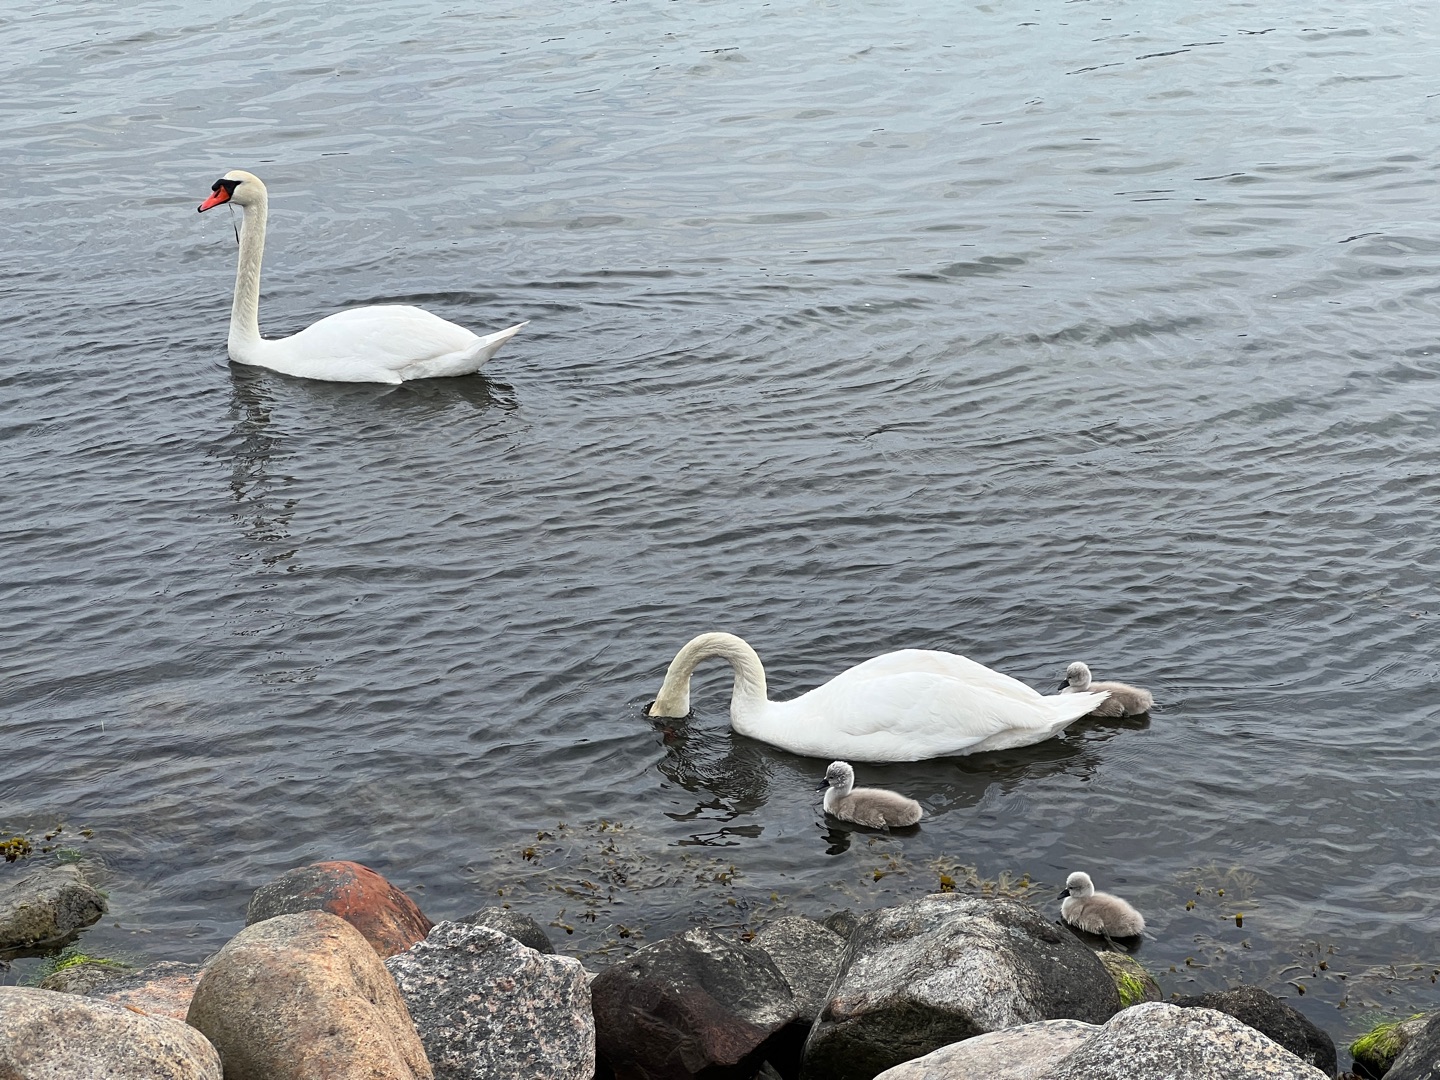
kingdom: Animalia
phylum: Chordata
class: Aves
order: Anseriformes
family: Anatidae
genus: Cygnus
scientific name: Cygnus olor
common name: Knopsvane
